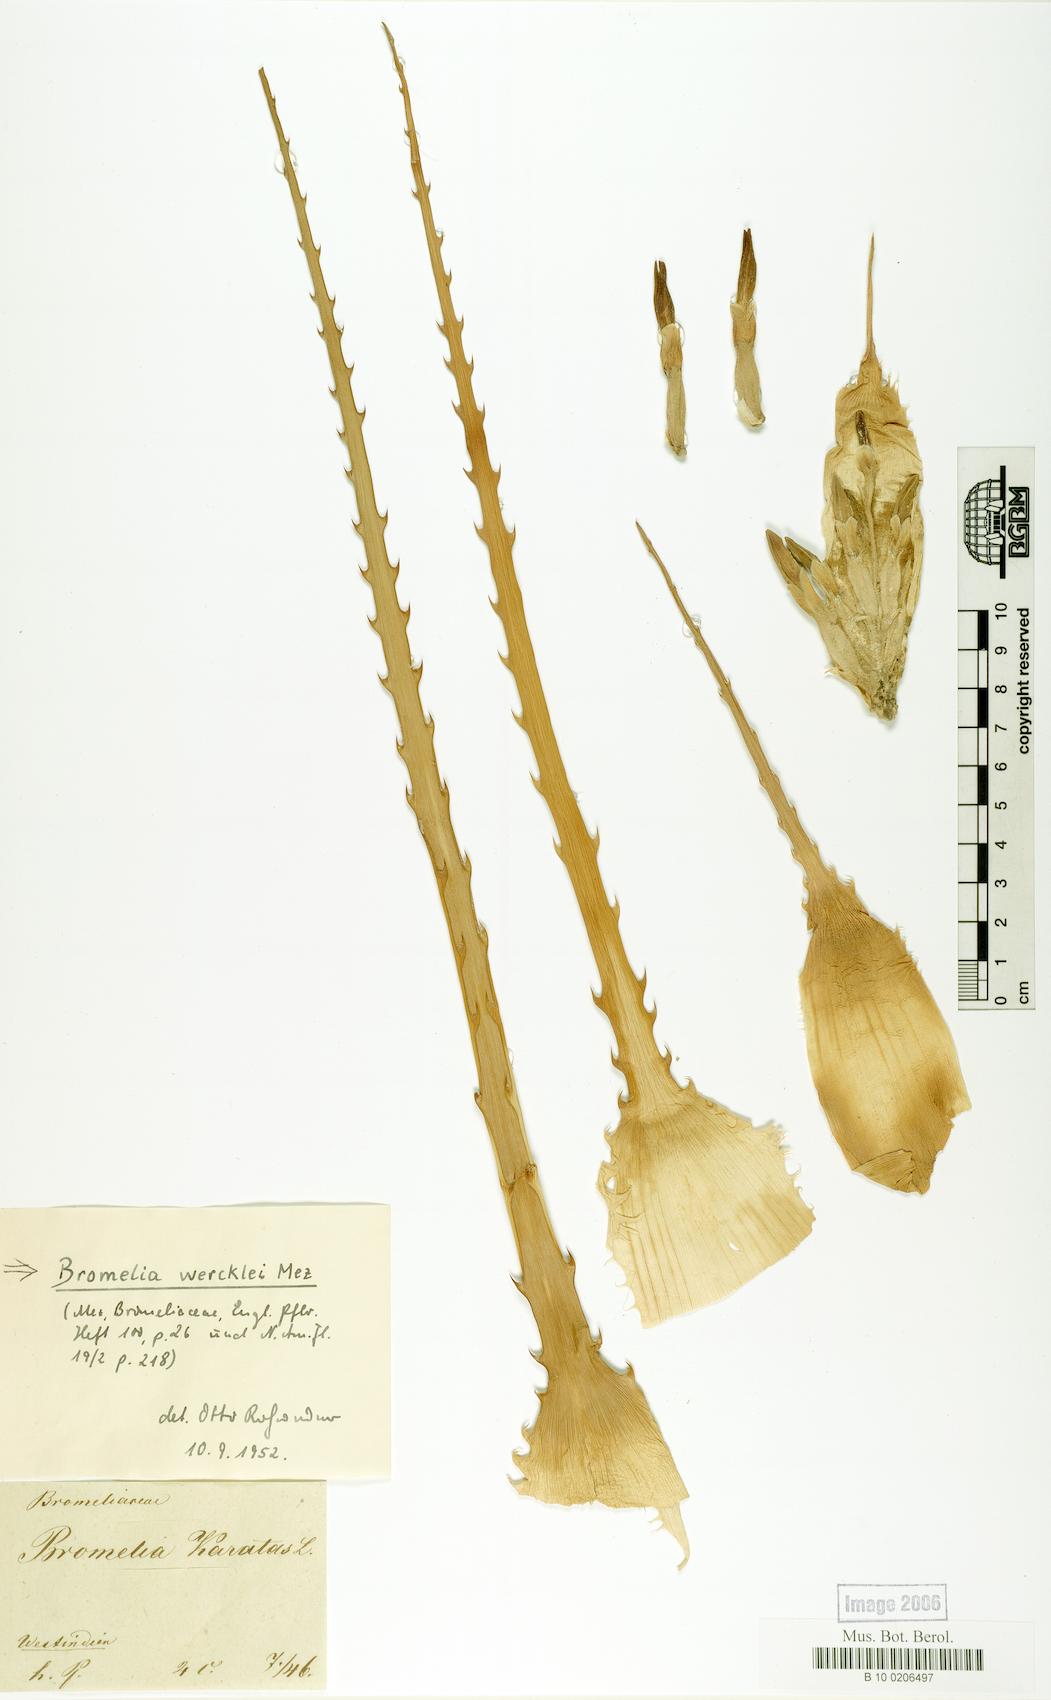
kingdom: Plantae
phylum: Tracheophyta
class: Liliopsida
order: Poales
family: Bromeliaceae
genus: Bromelia
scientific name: Bromelia hemisphaerica
